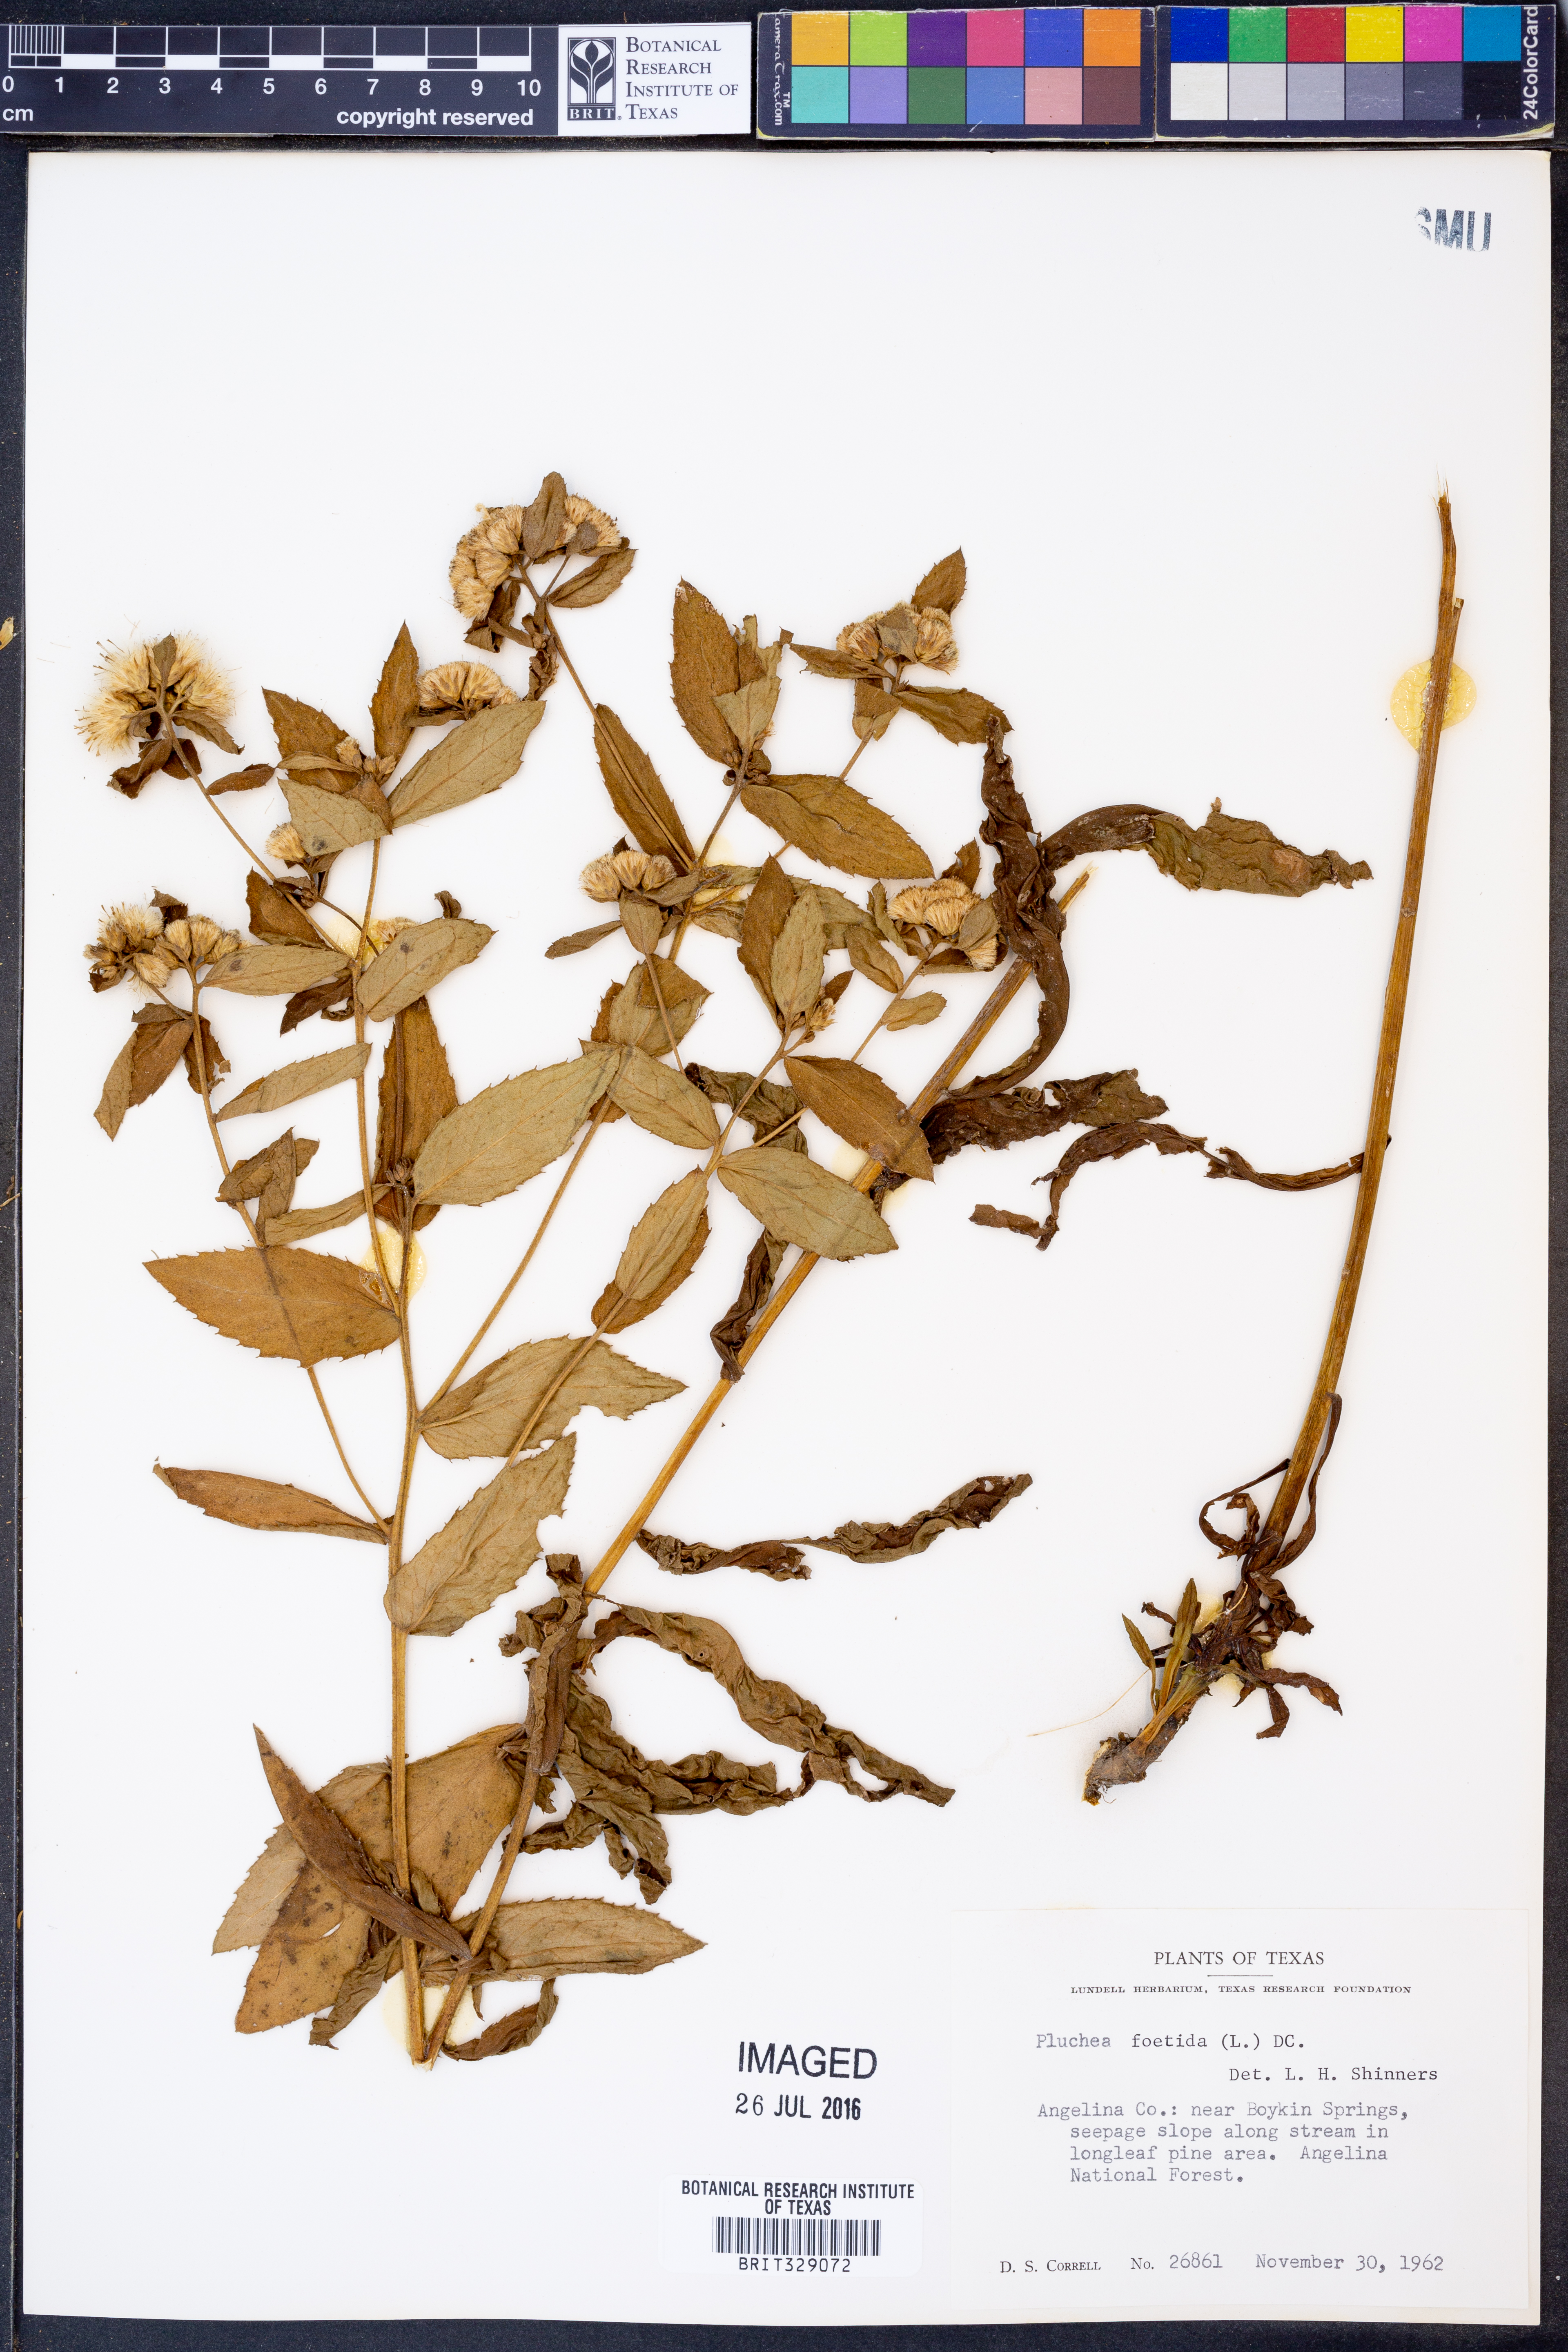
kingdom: Plantae
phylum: Tracheophyta
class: Magnoliopsida
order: Asterales
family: Asteraceae
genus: Pluchea
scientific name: Pluchea foetida
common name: Stinking camphorweed
